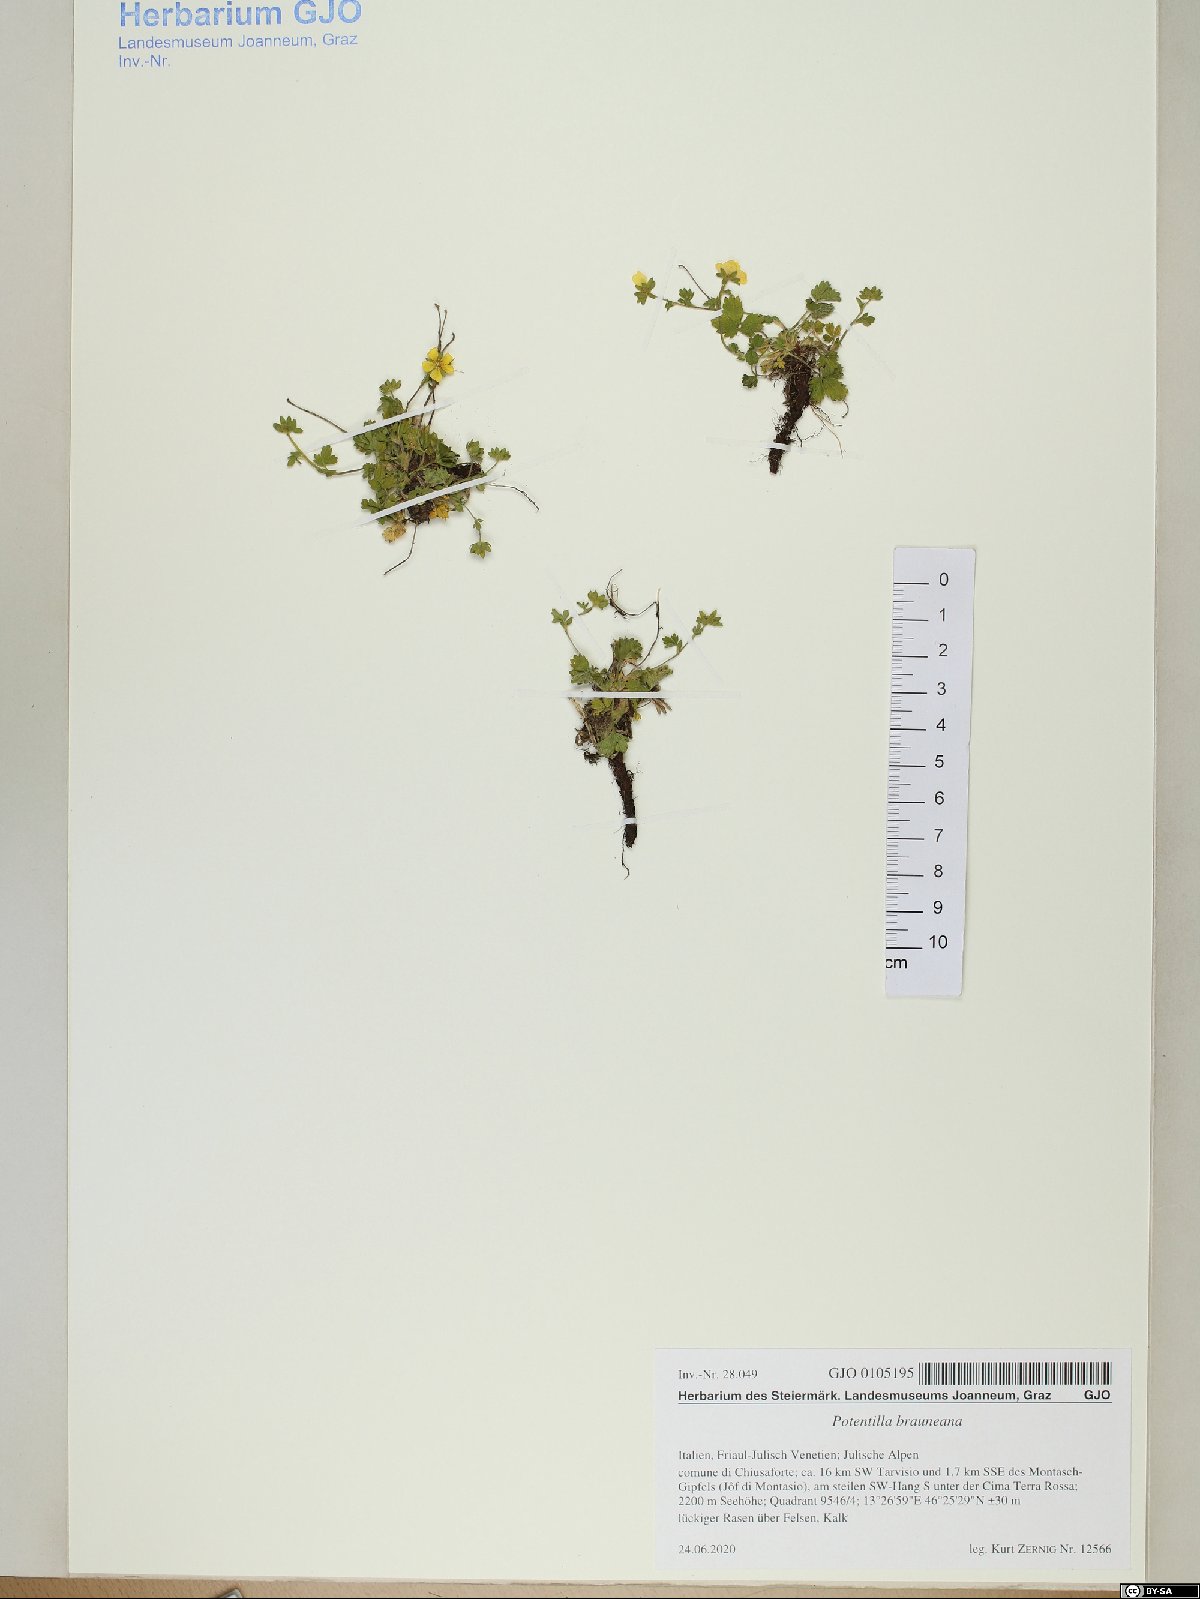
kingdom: Plantae
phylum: Tracheophyta
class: Magnoliopsida
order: Rosales
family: Rosaceae
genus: Potentilla
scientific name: Potentilla brauneana
